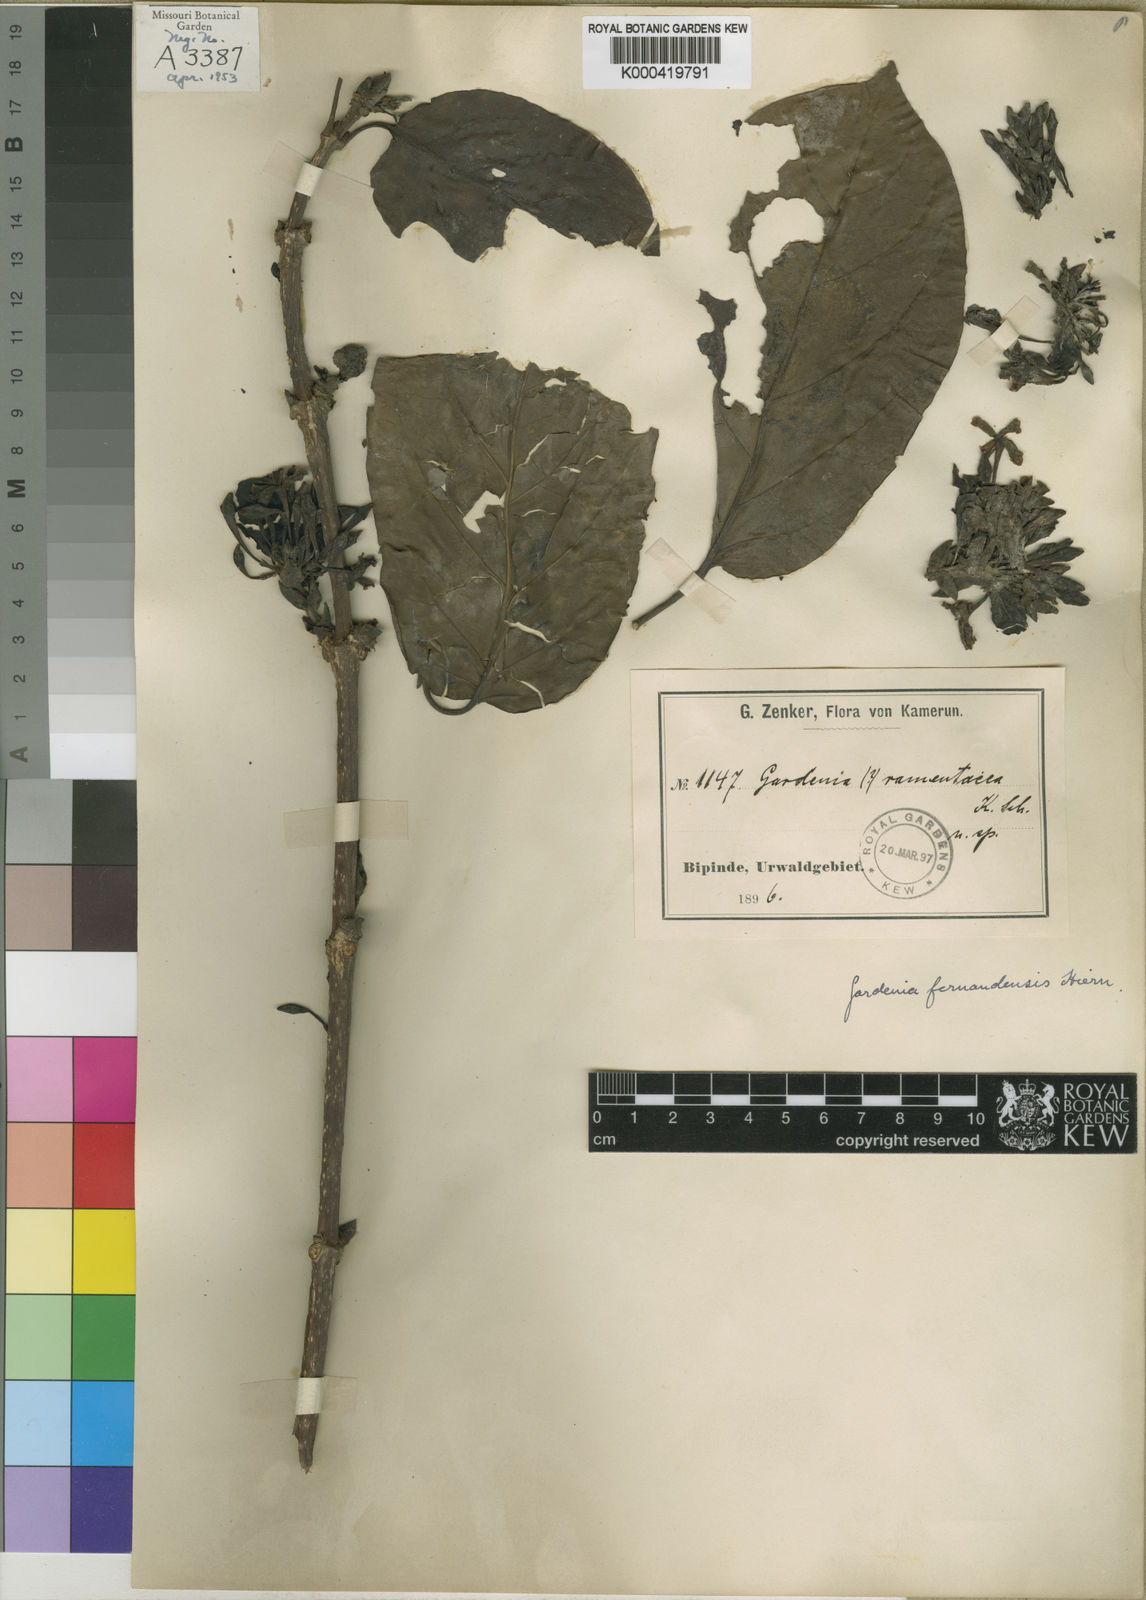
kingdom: Plantae
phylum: Tracheophyta
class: Magnoliopsida
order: Gentianales
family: Rubiaceae
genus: Pleiocoryne
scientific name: Pleiocoryne fernandensis
